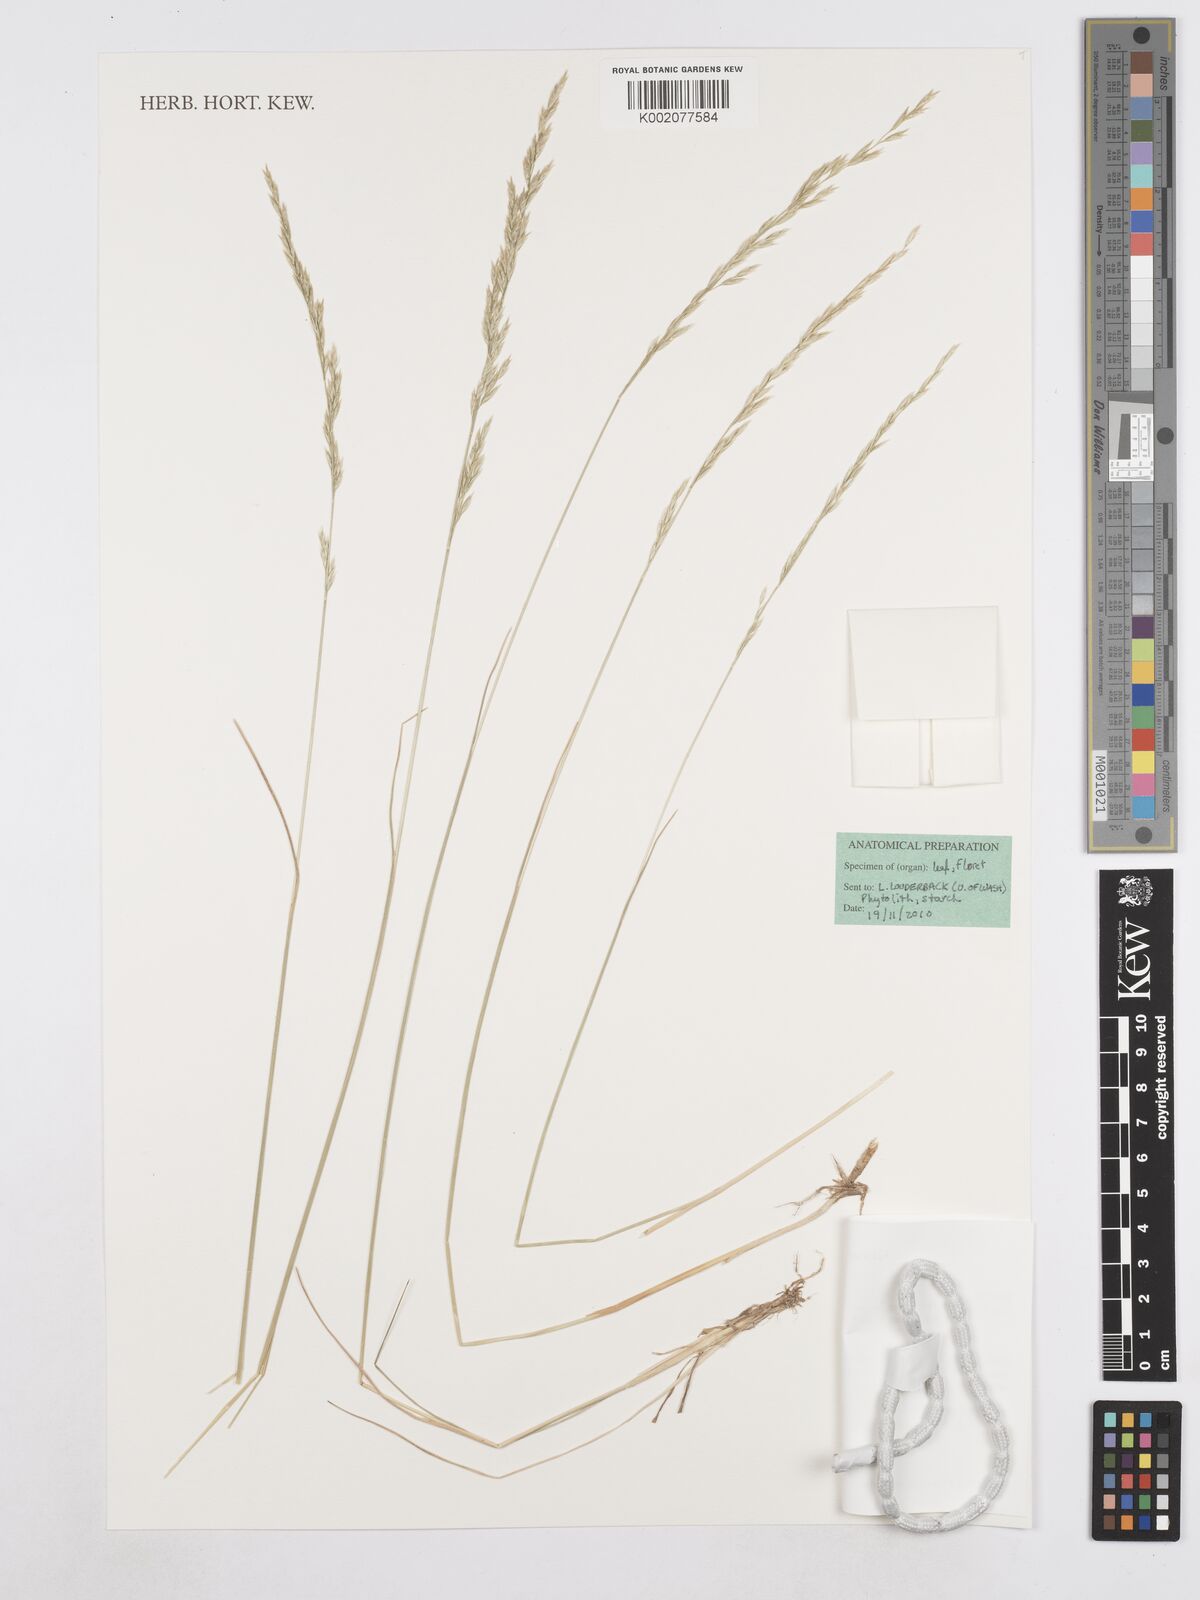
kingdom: Plantae
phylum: Tracheophyta
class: Liliopsida
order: Poales
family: Poaceae
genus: Poa
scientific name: Poa secunda
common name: Sandberg bluegrass
